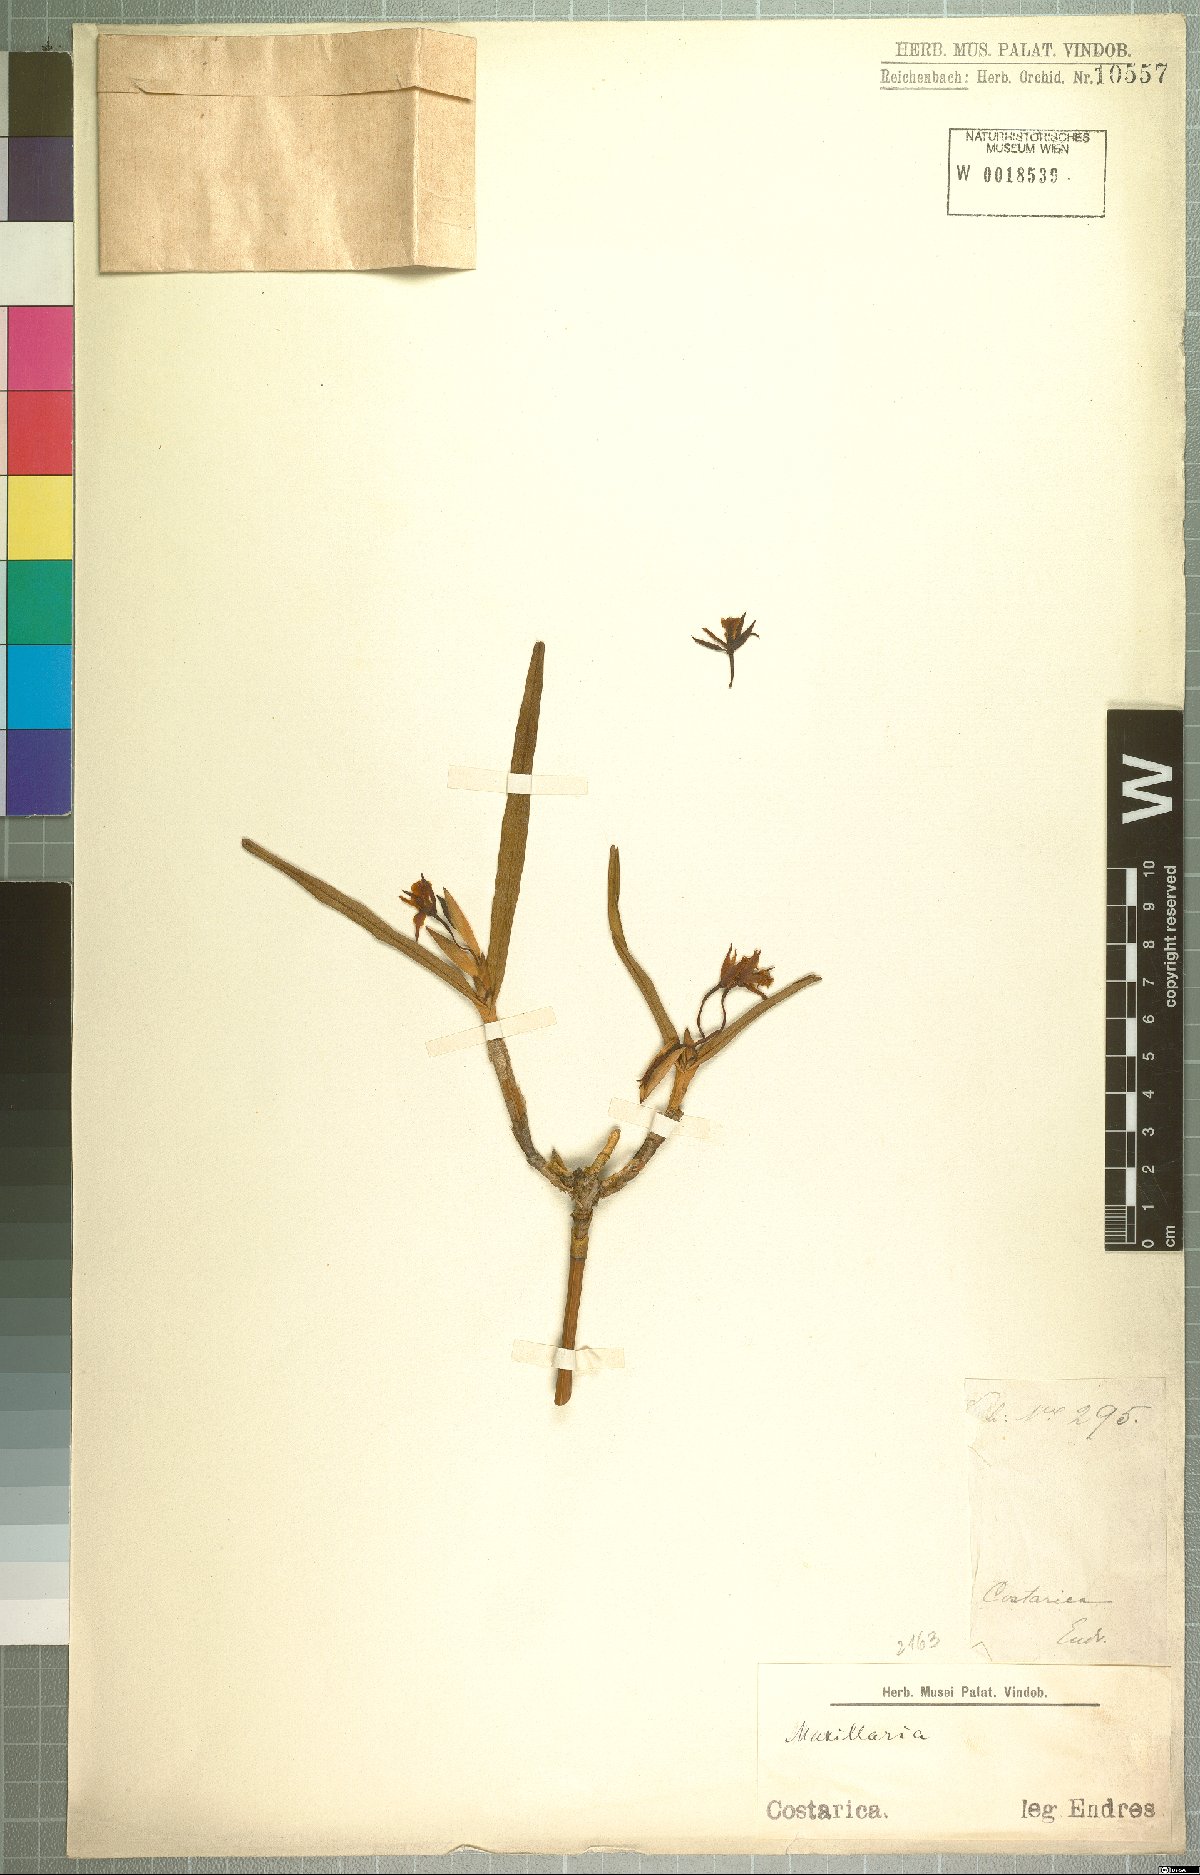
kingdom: Plantae
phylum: Tracheophyta
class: Liliopsida
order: Asparagales
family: Orchidaceae
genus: Maxillaria
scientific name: Maxillaria
